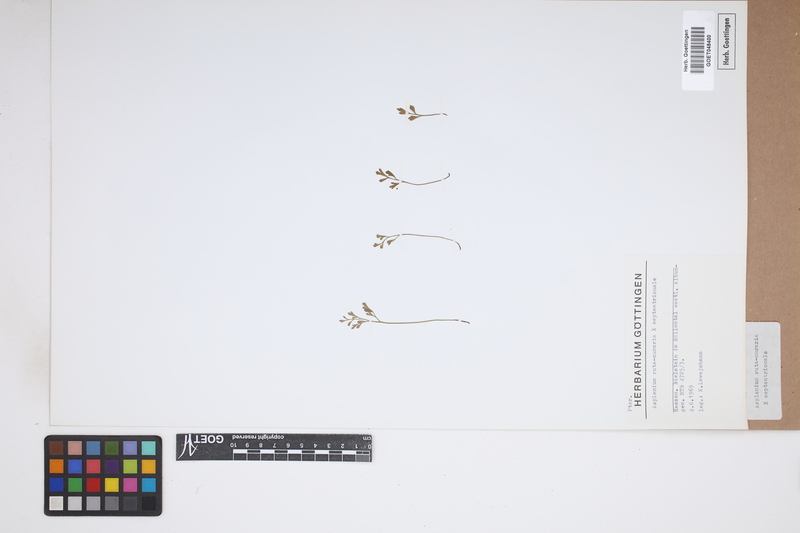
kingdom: Plantae
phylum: Tracheophyta
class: Polypodiopsida
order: Polypodiales
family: Aspleniaceae
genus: Asplenium
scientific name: Asplenium
